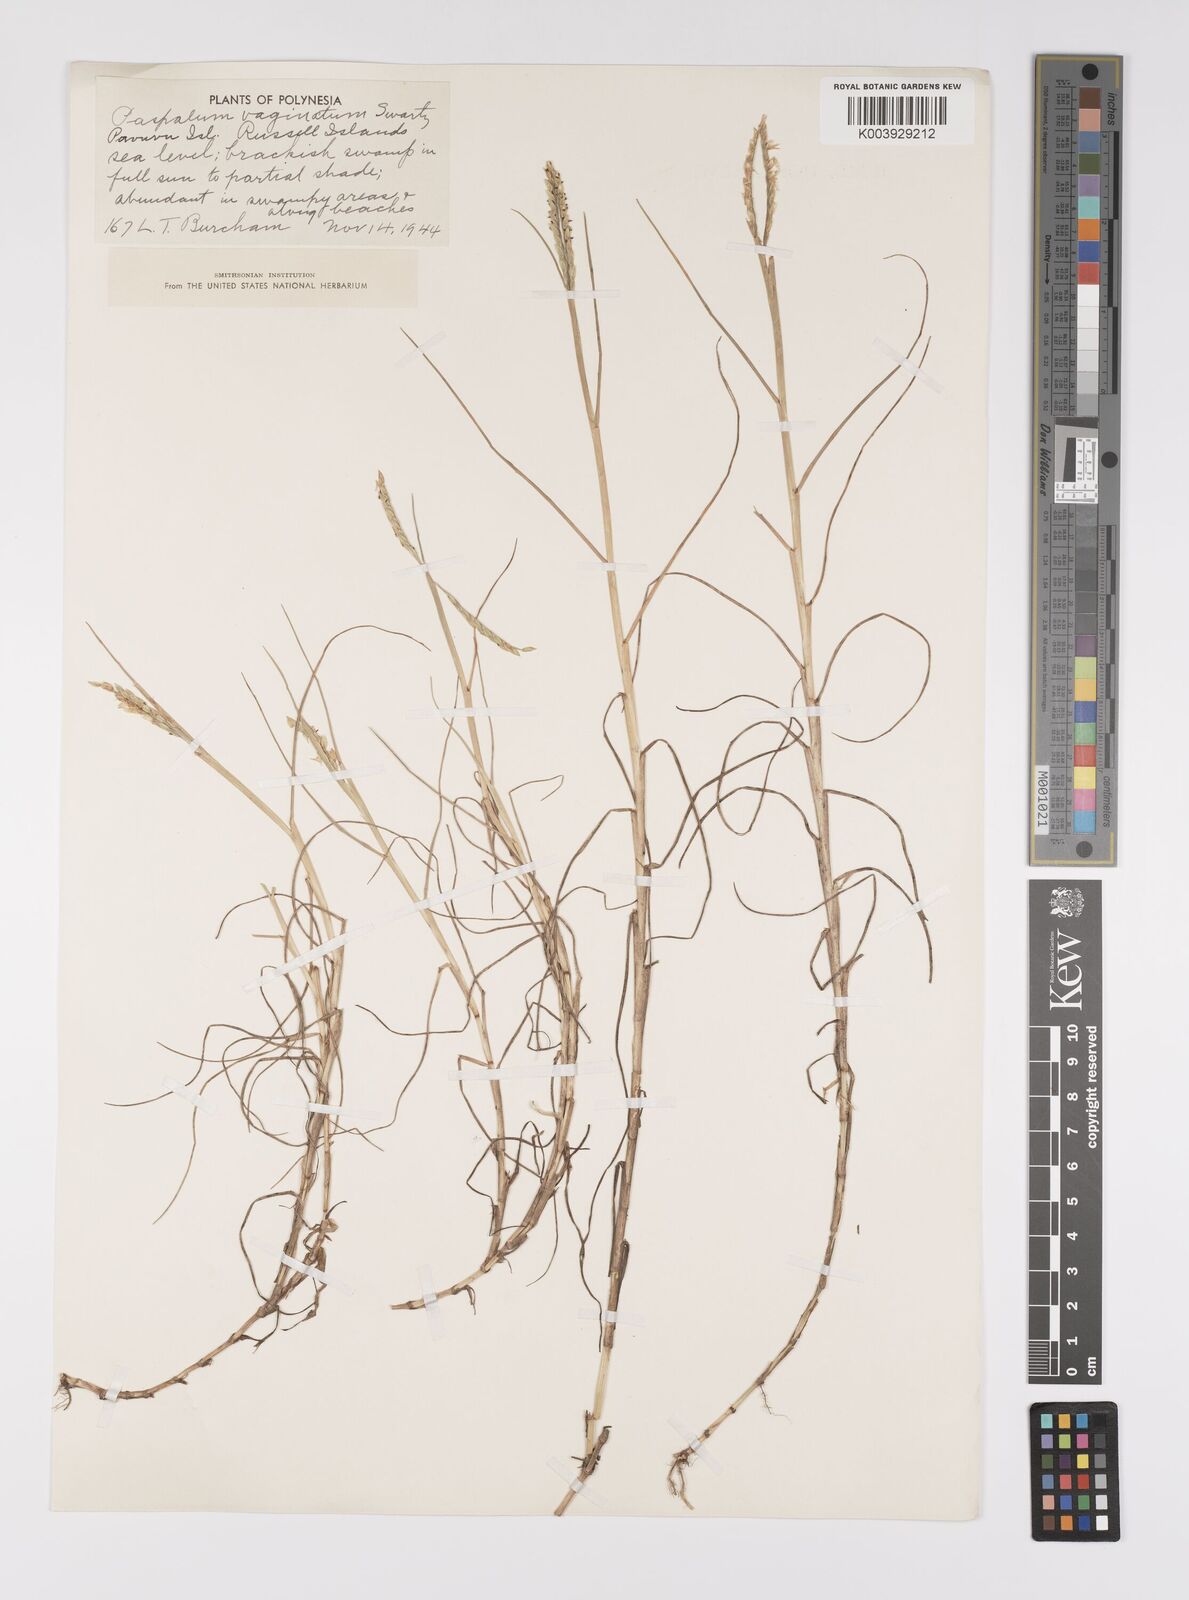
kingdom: Plantae
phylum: Tracheophyta
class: Liliopsida
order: Poales
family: Poaceae
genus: Paspalum
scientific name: Paspalum vaginatum
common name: Seashore paspalum
